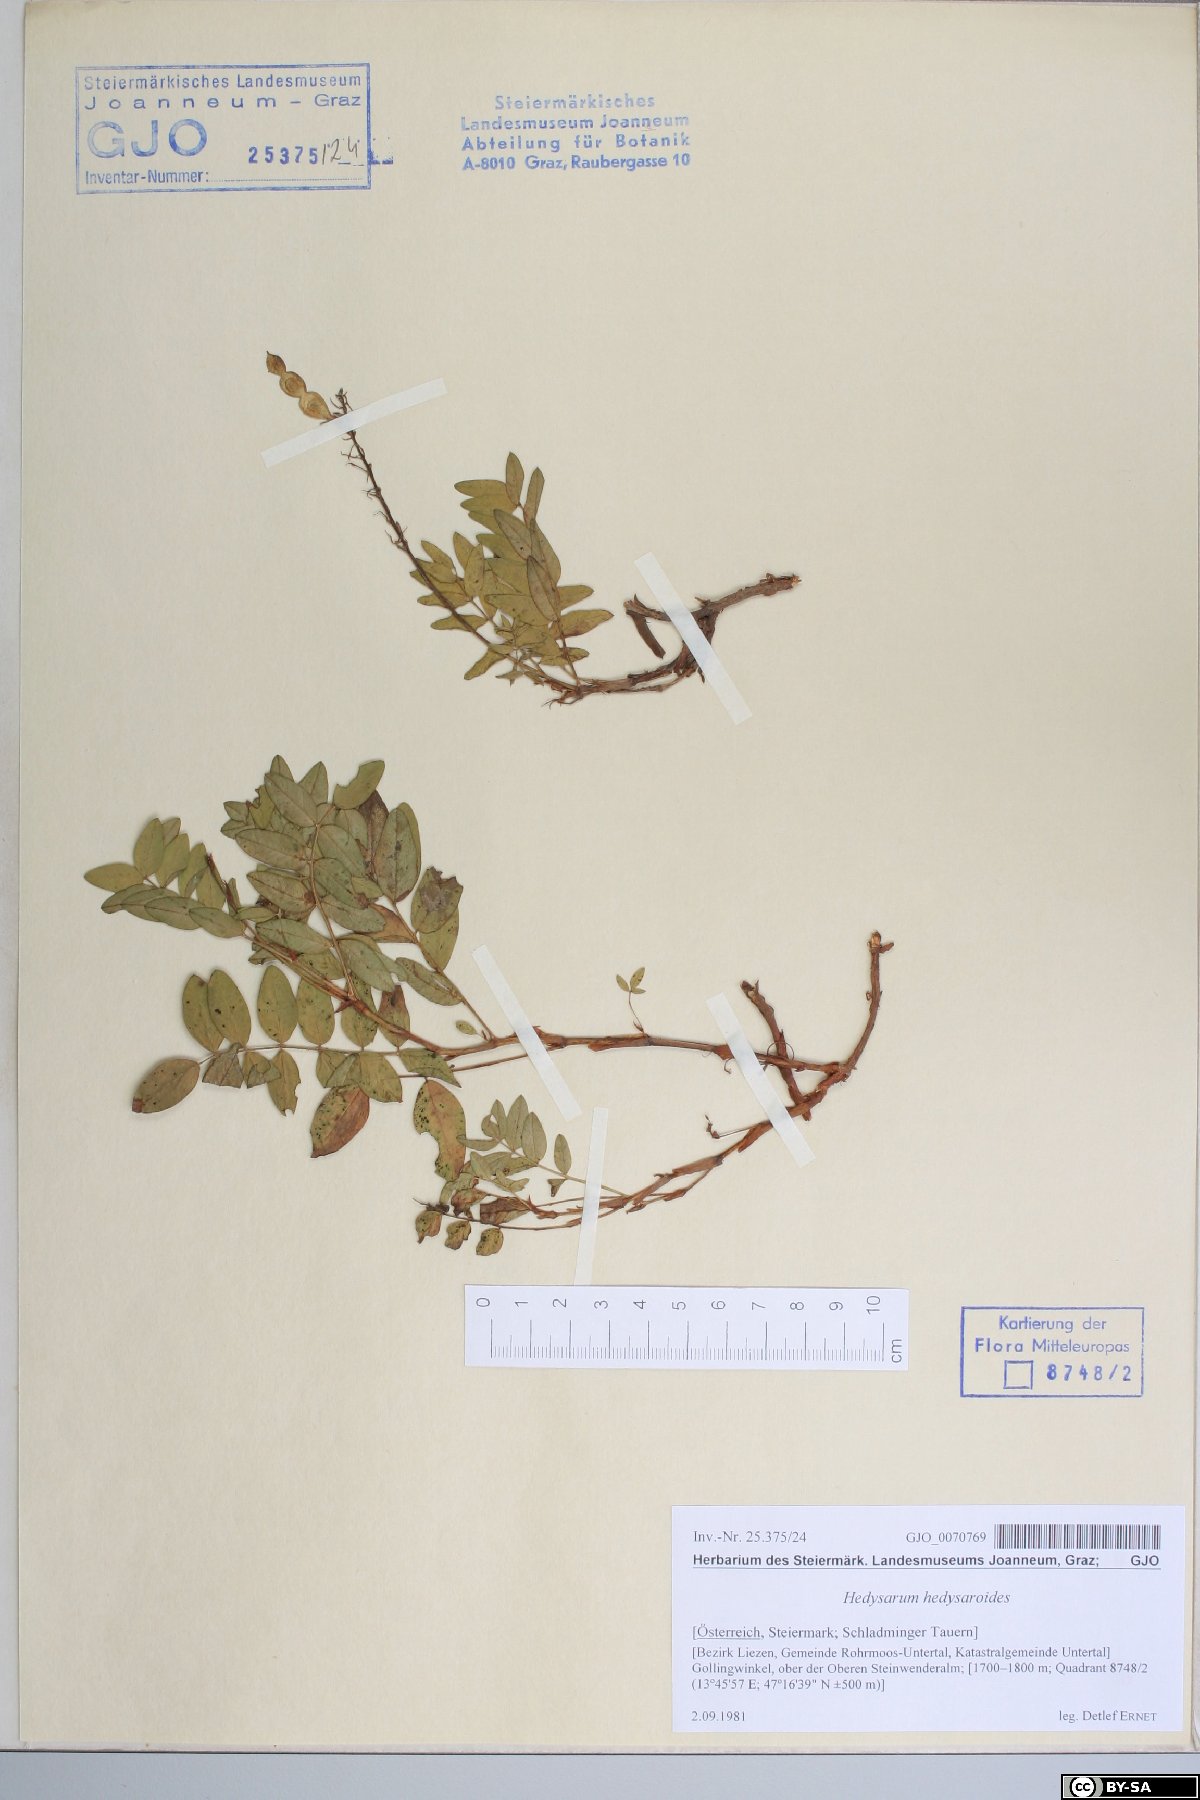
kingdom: Plantae
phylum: Tracheophyta
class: Magnoliopsida
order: Fabales
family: Fabaceae
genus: Hedysarum
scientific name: Hedysarum hedysaroides
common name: Alpine french-honeysuckle
